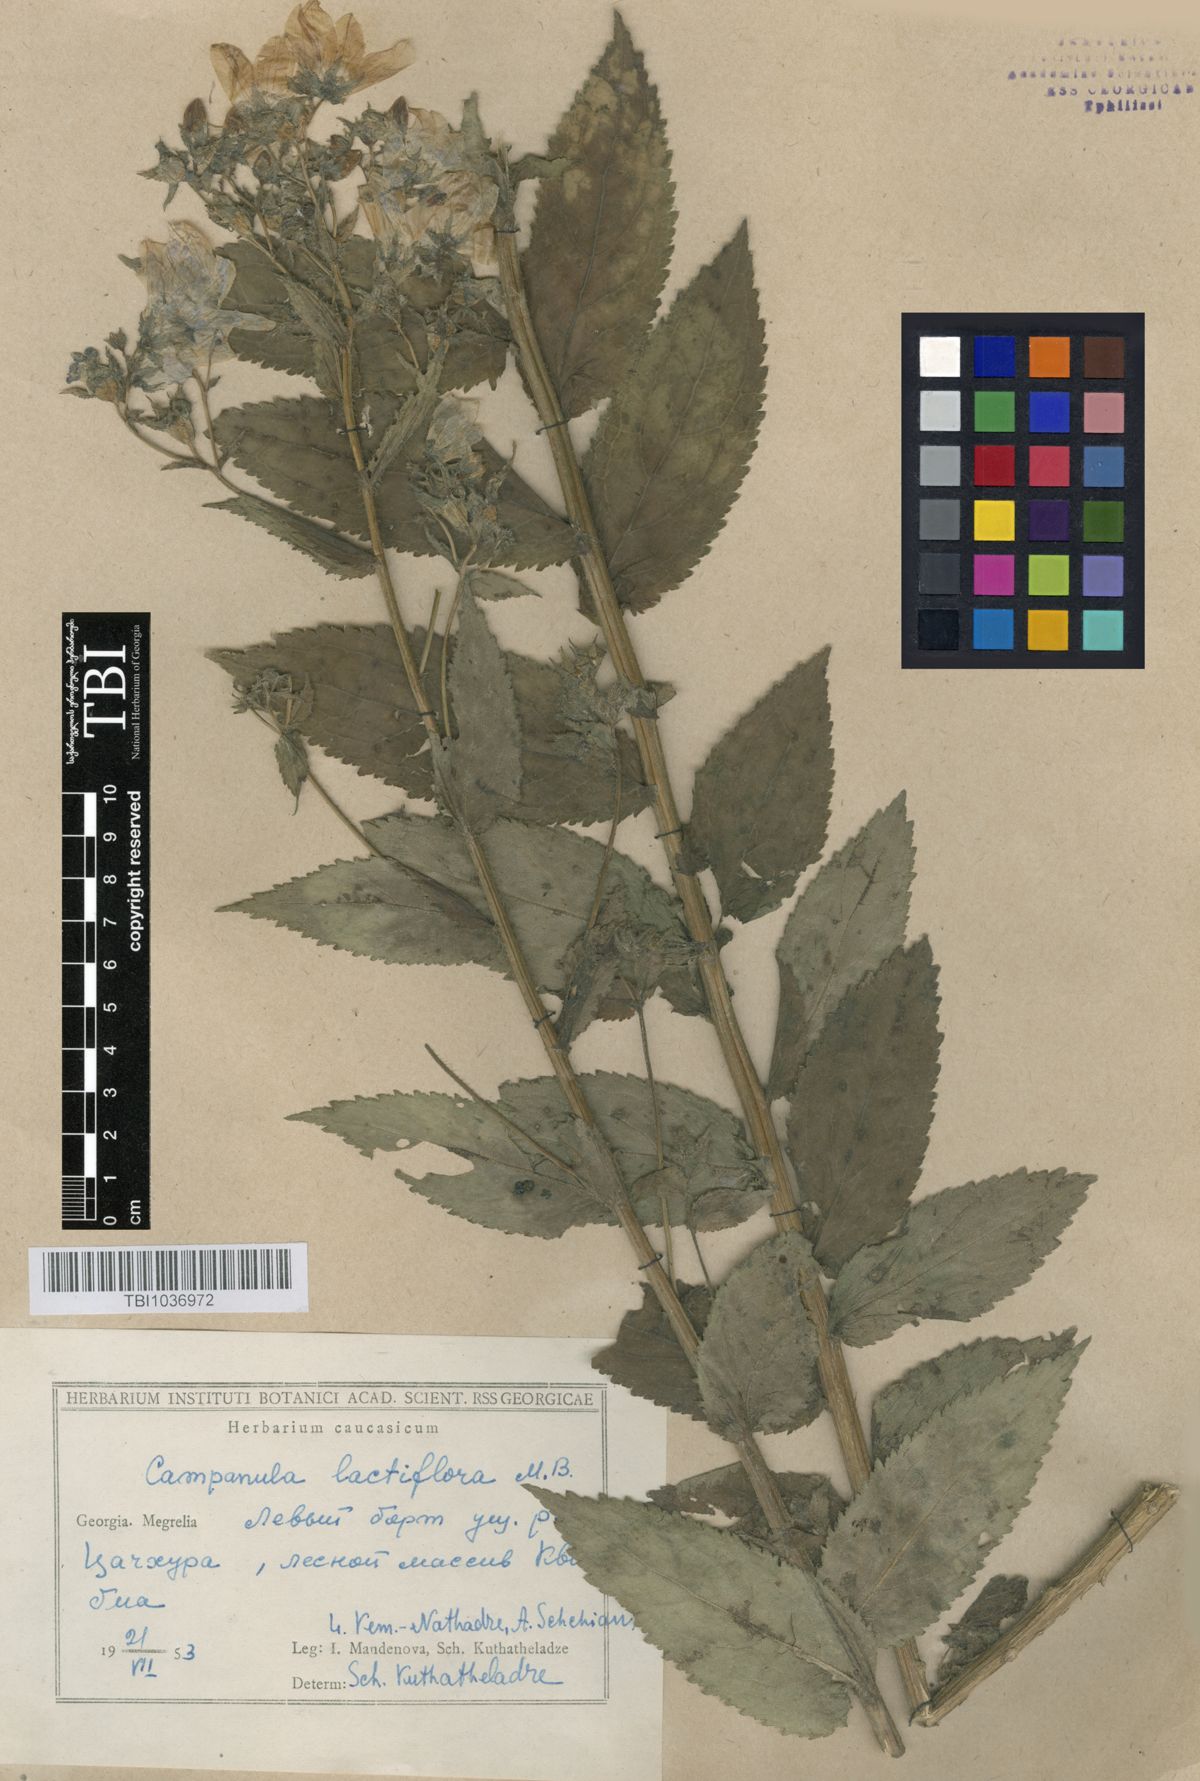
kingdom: Plantae
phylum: Tracheophyta
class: Magnoliopsida
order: Asterales
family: Campanulaceae
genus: Campanula
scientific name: Campanula lactiflora
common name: Milky bellflower
